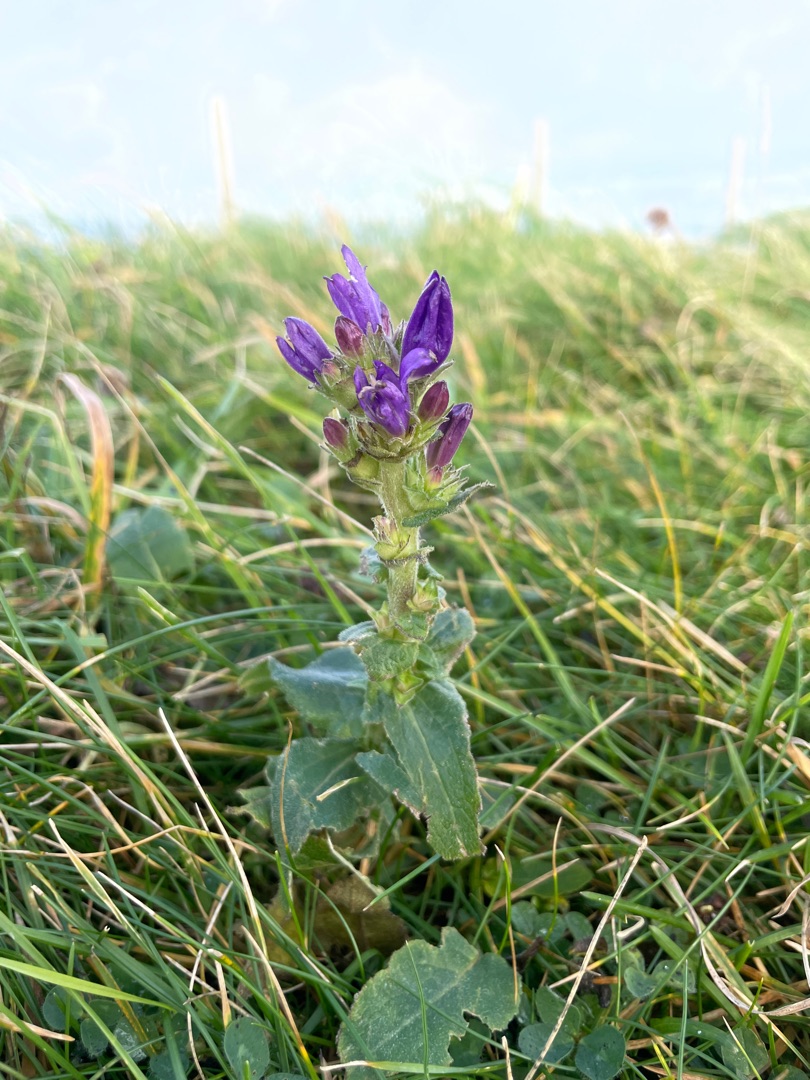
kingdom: Plantae
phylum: Tracheophyta
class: Magnoliopsida
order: Asterales
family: Campanulaceae
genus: Campanula
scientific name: Campanula glomerata
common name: Filtet klokke
